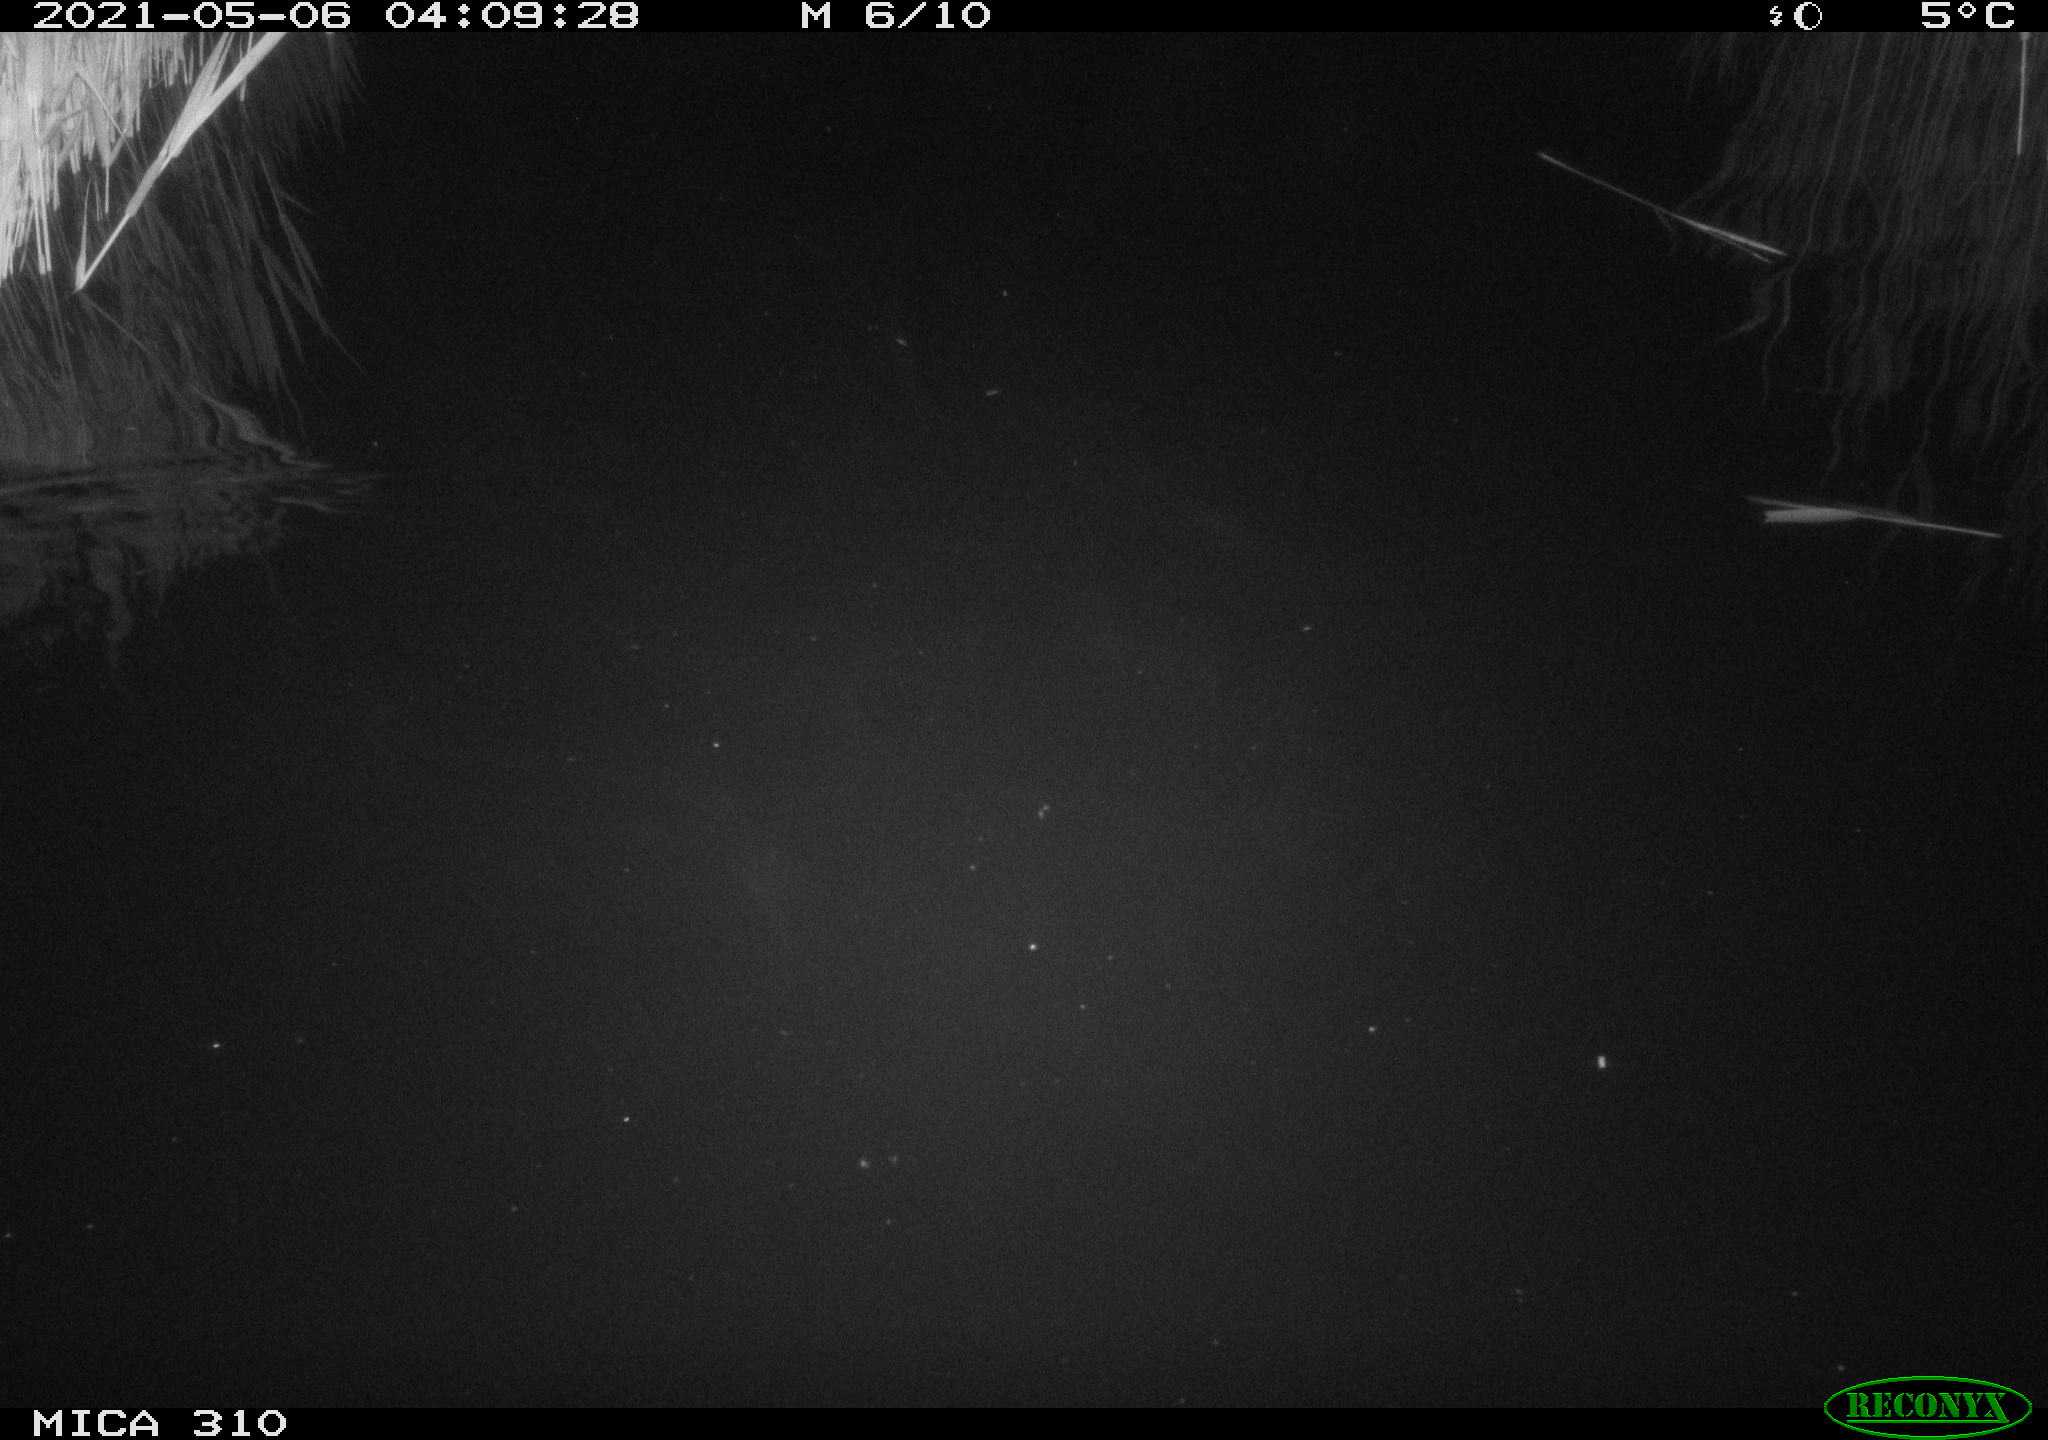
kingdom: Animalia
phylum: Chordata
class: Mammalia
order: Rodentia
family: Muridae
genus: Rattus
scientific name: Rattus norvegicus
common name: Brown rat
